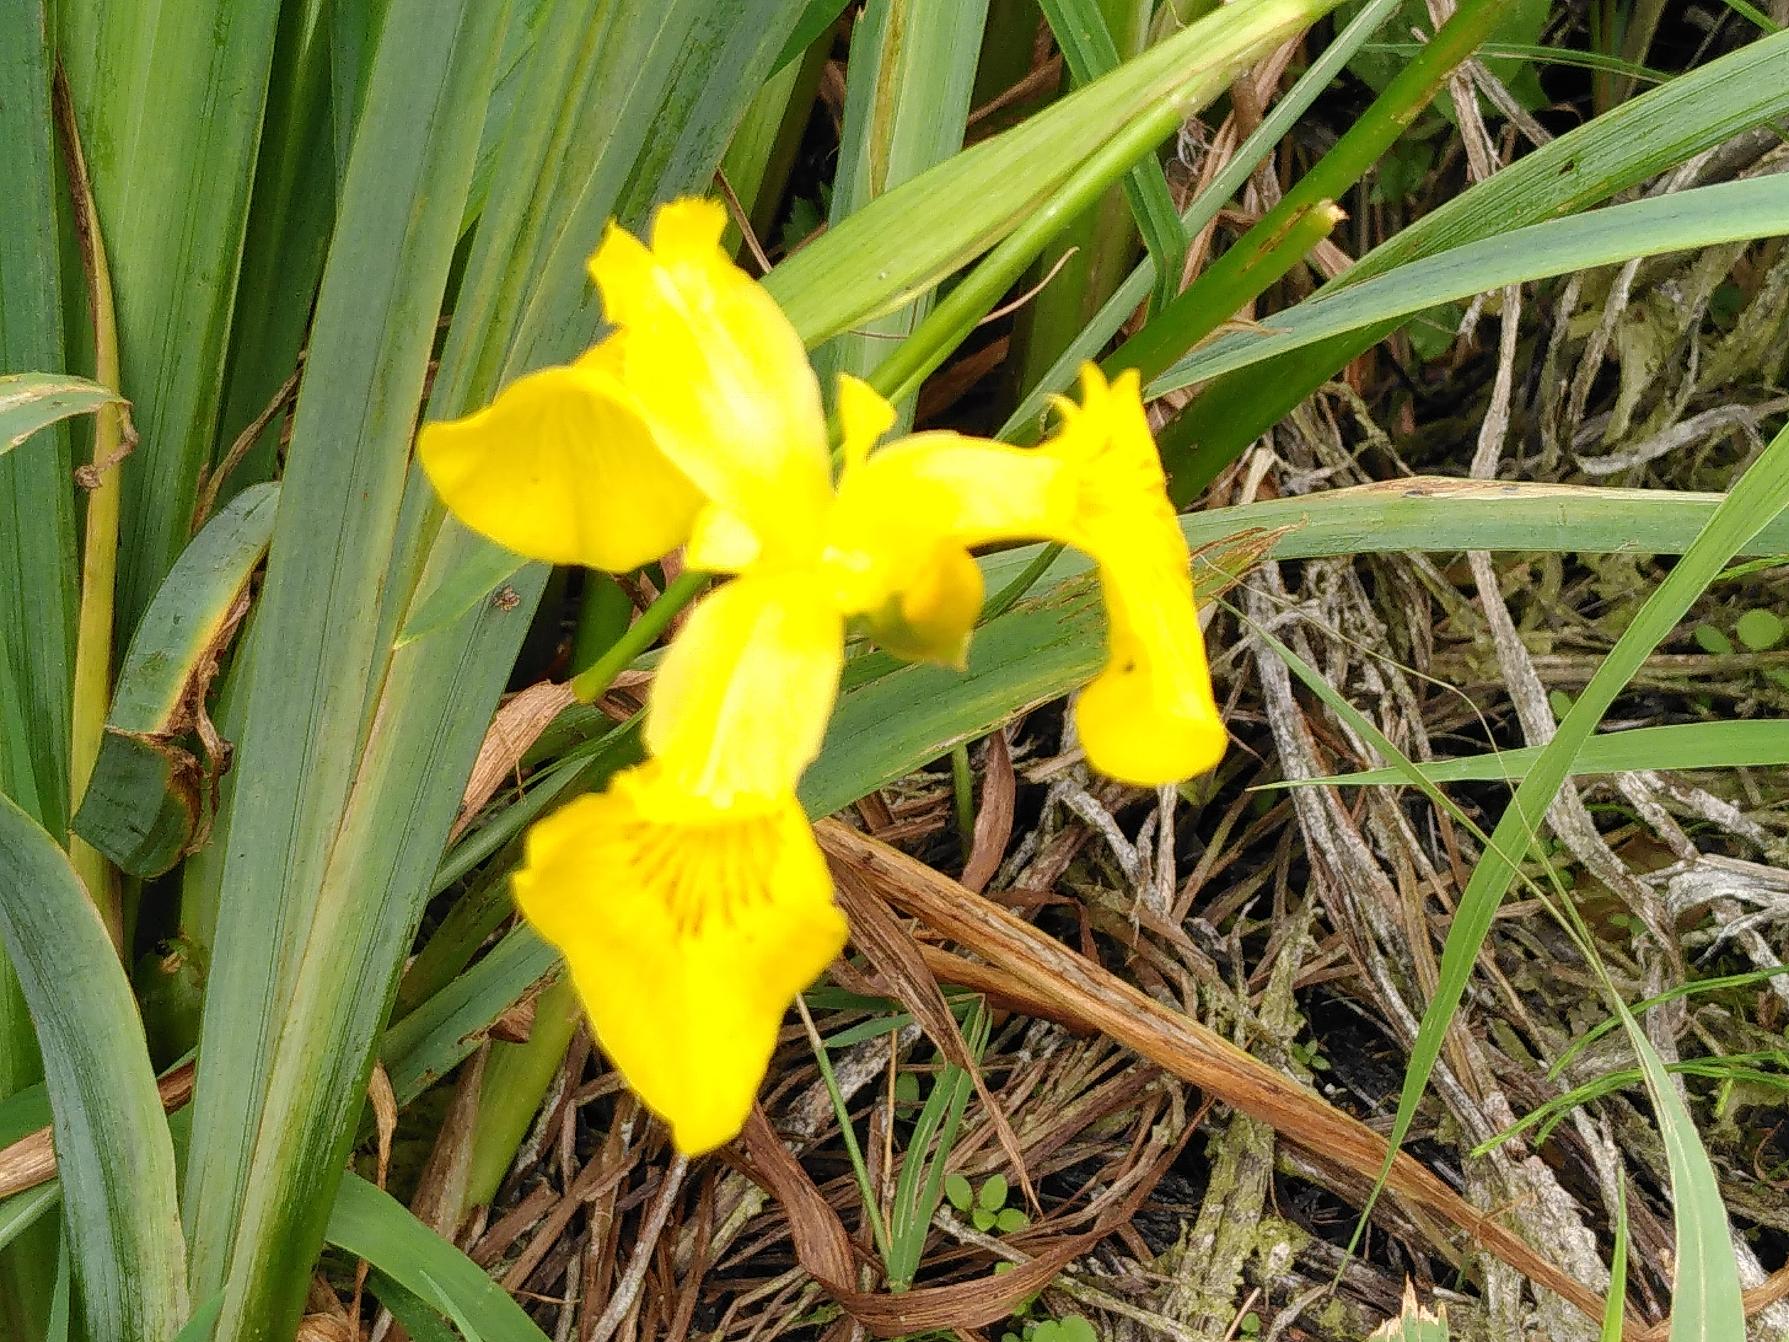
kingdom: Plantae
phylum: Tracheophyta
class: Liliopsida
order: Asparagales
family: Iridaceae
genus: Iris
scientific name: Iris pseudacorus
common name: Gul iris
